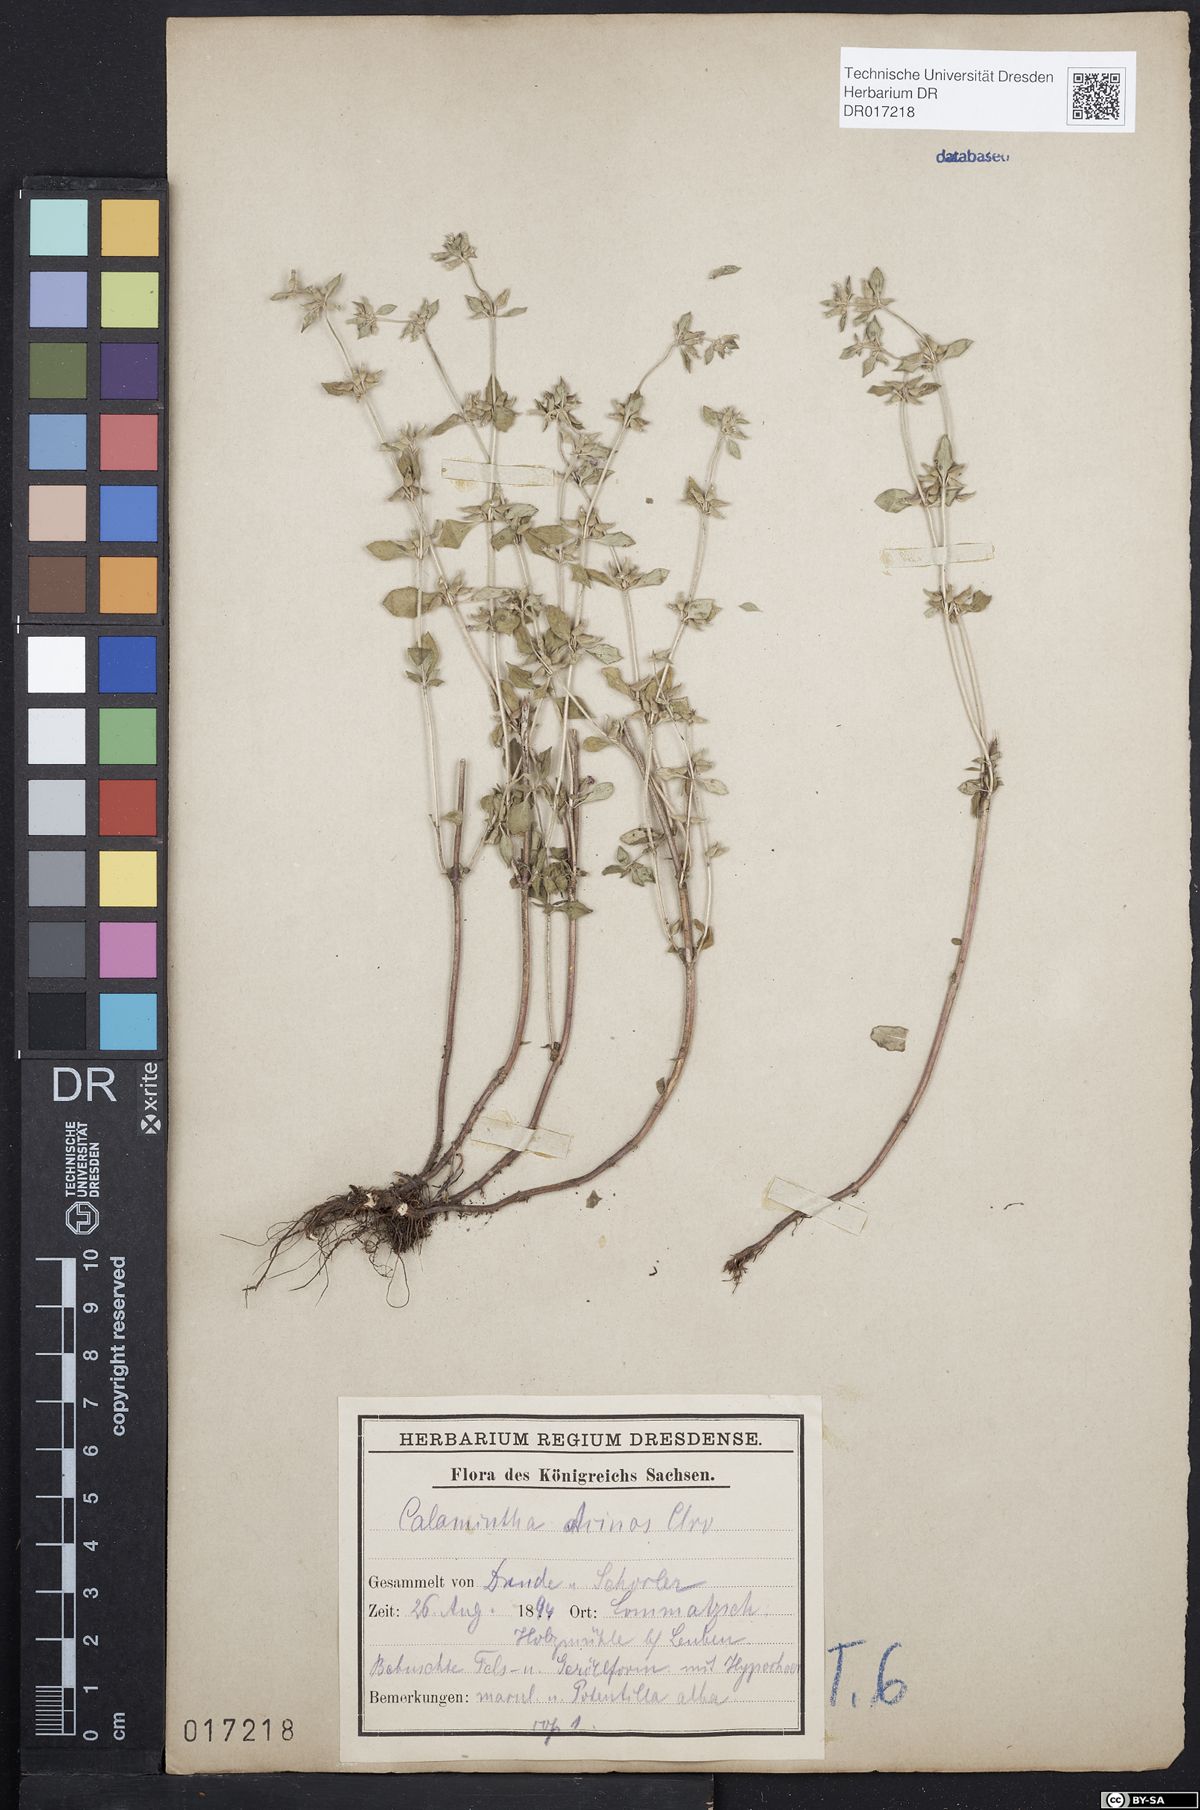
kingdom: Plantae
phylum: Tracheophyta
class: Magnoliopsida
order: Lamiales
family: Lamiaceae
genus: Clinopodium
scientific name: Clinopodium acinos
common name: Basil thyme
